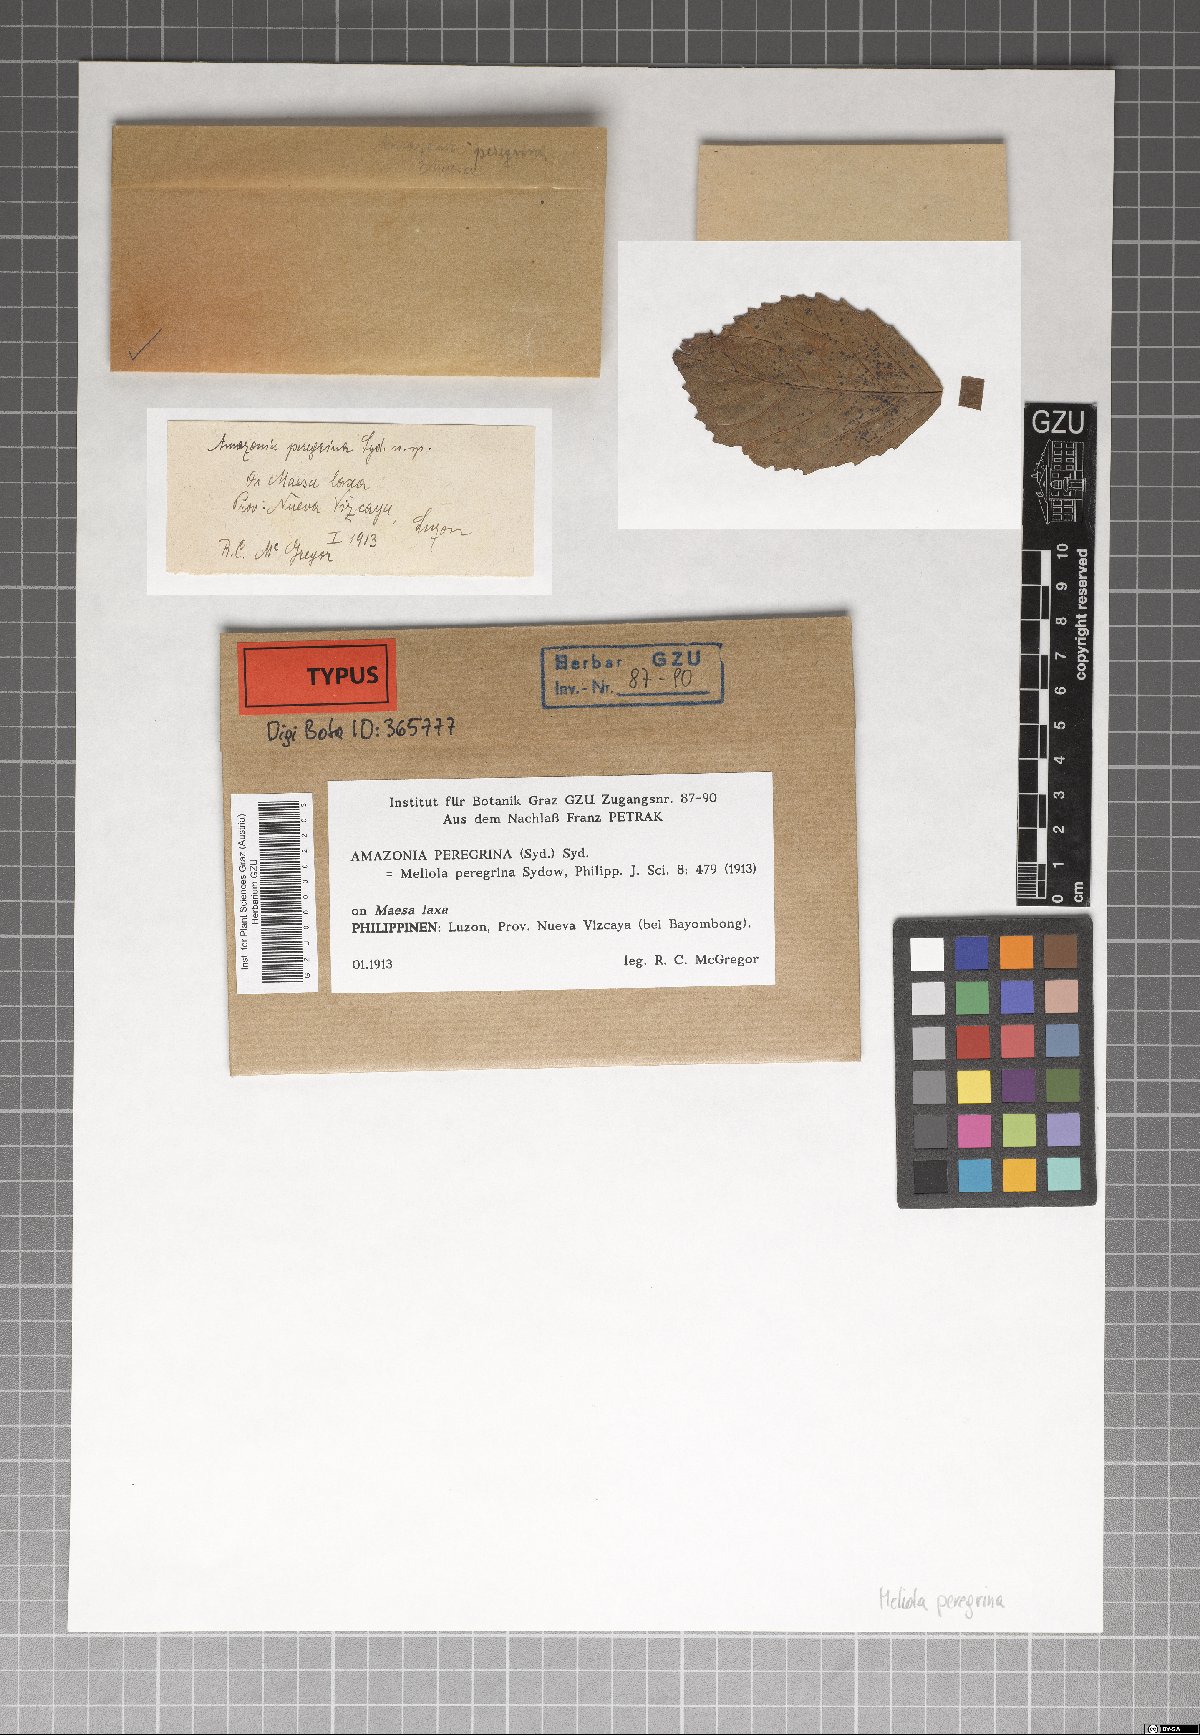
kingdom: Fungi
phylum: Ascomycota
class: Sordariomycetes
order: Meliolales
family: Meliolaceae
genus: Amazonia
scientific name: Amazonia peregrina
